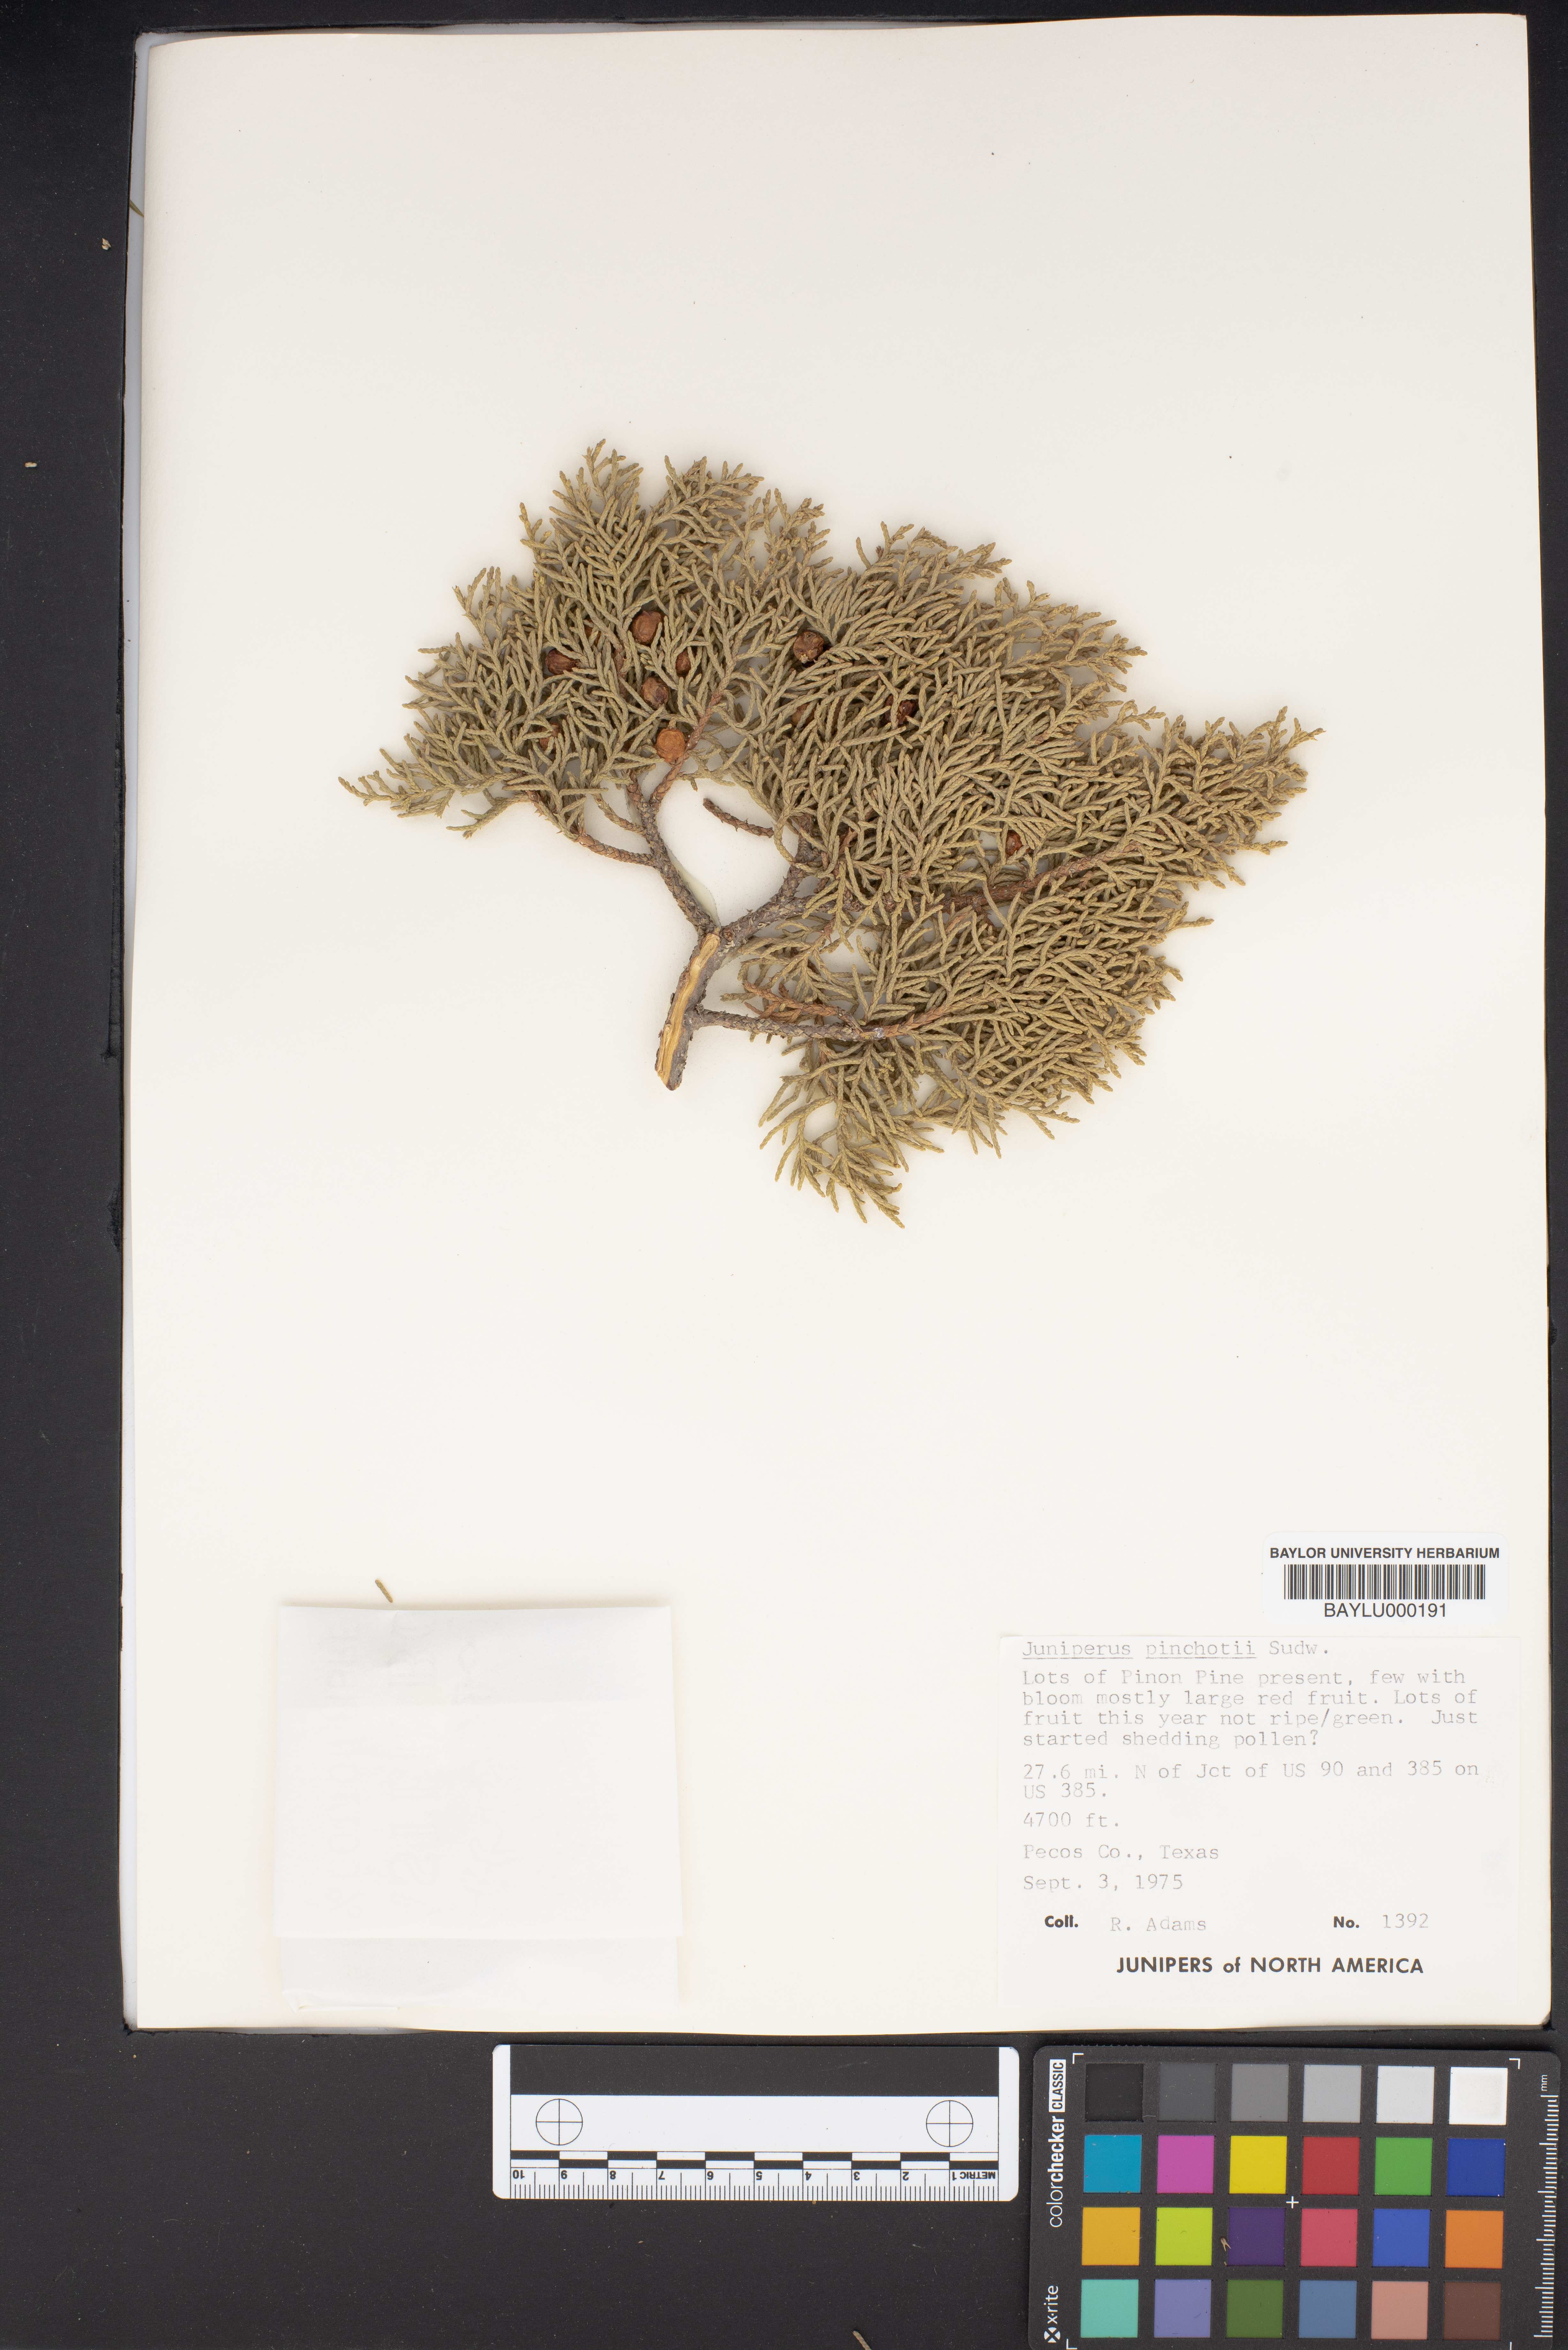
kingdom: Plantae
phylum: Tracheophyta
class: Pinopsida
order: Pinales
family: Cupressaceae
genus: Juniperus
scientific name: Juniperus pinchotii
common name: Pinchot juniper
